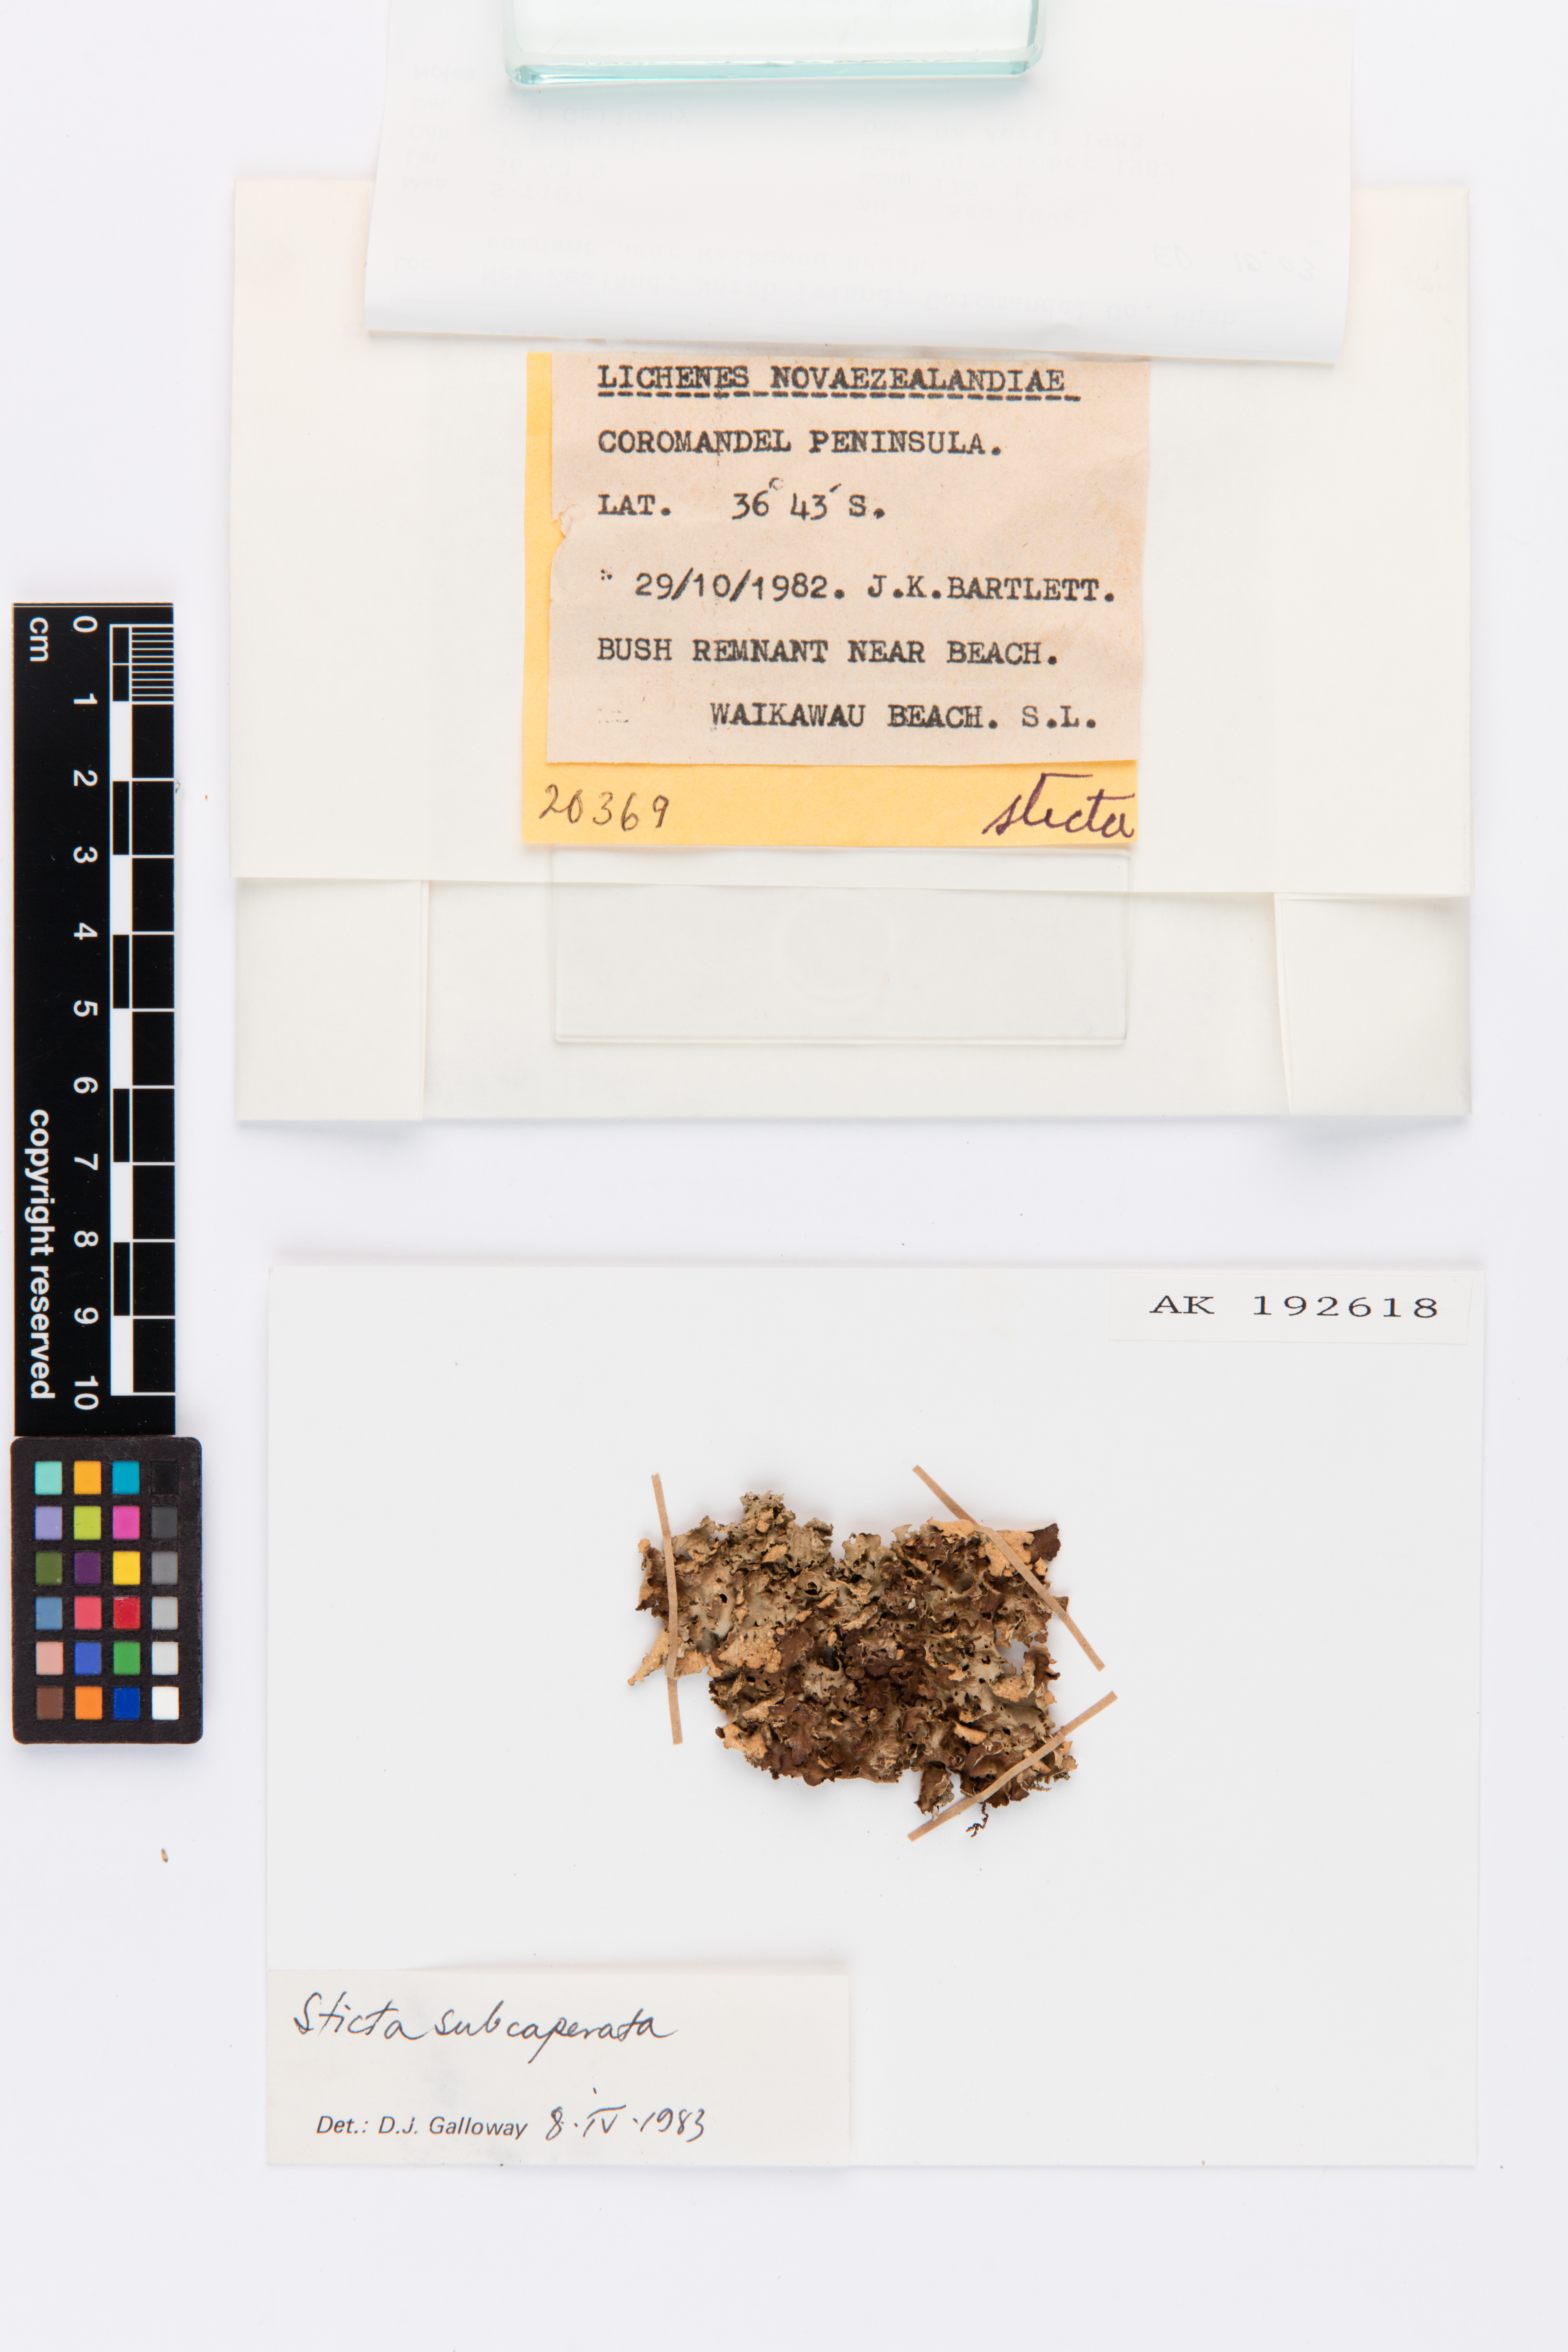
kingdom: Fungi
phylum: Ascomycota
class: Lecanoromycetes
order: Peltigerales
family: Lobariaceae
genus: Sticta
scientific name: Sticta subcaperata
